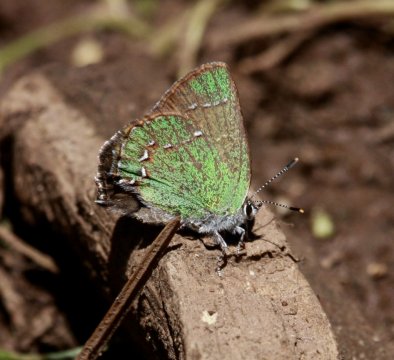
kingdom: Animalia
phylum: Arthropoda
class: Insecta
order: Lepidoptera
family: Lycaenidae
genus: Callophrys
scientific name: Callophrys affinis
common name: Western Green Hairstreak
